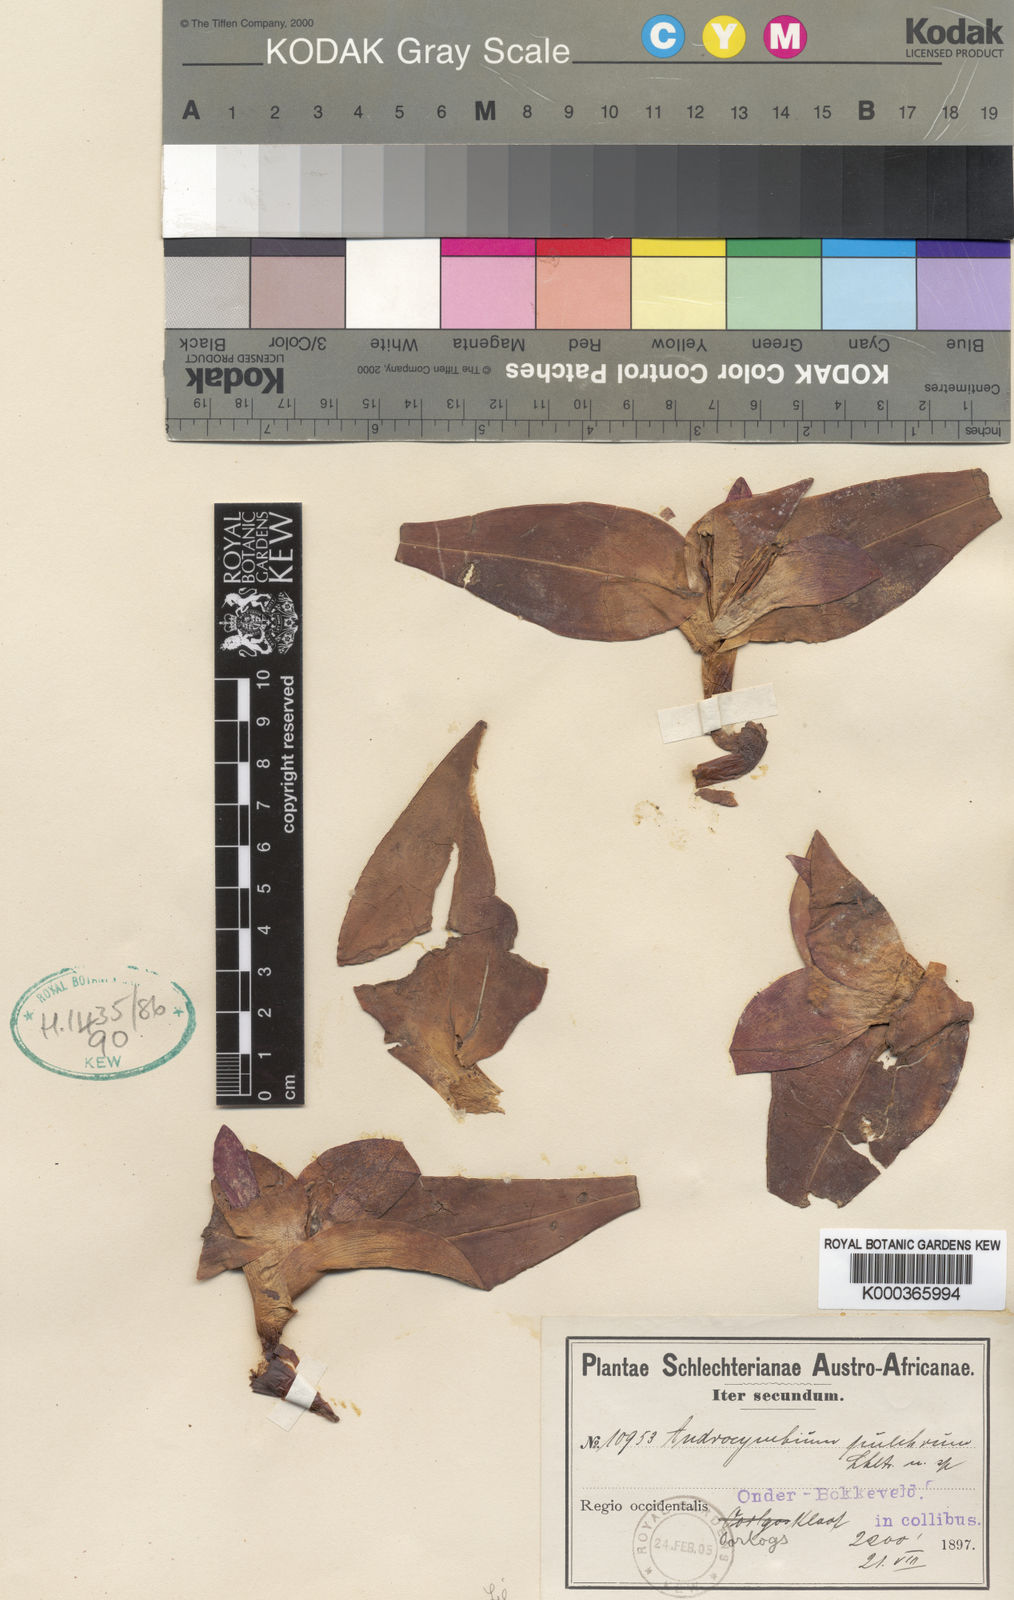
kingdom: Plantae
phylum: Tracheophyta
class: Liliopsida
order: Liliales
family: Colchicaceae
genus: Colchicum
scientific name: Colchicum burchellii
